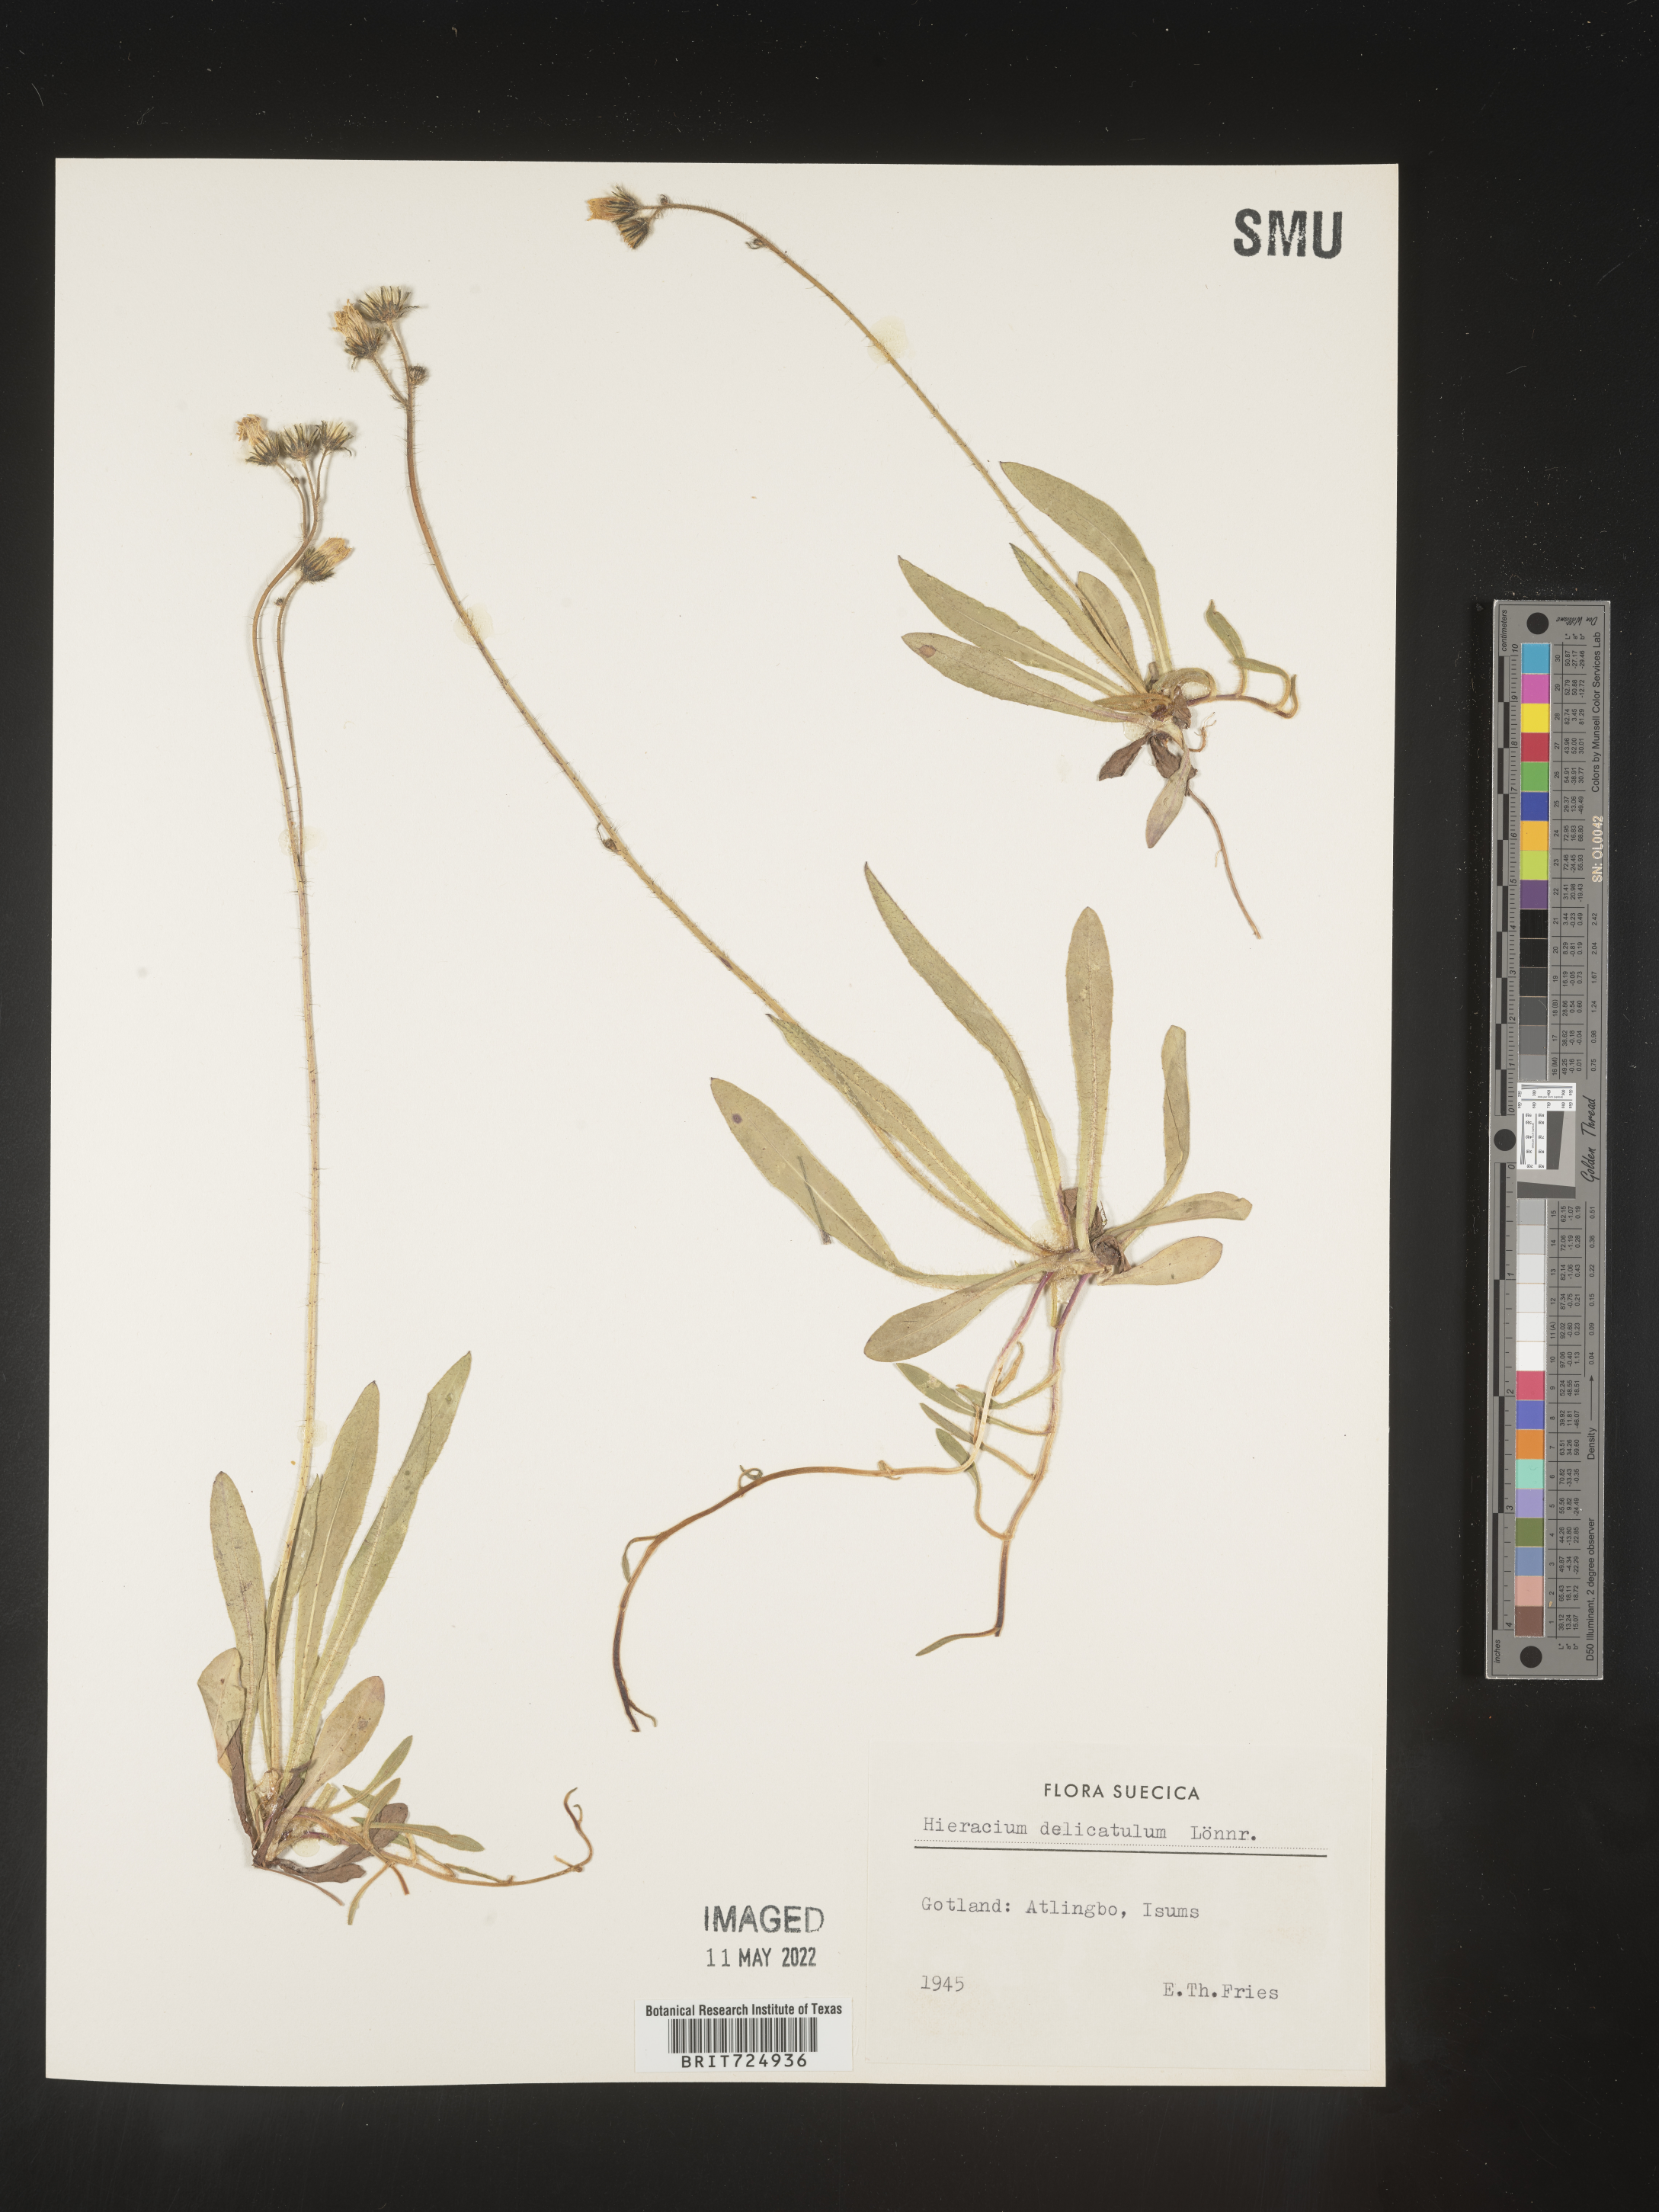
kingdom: Plantae
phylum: Tracheophyta
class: Magnoliopsida
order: Asterales
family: Asteraceae
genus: Hieracium
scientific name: Hieracium
